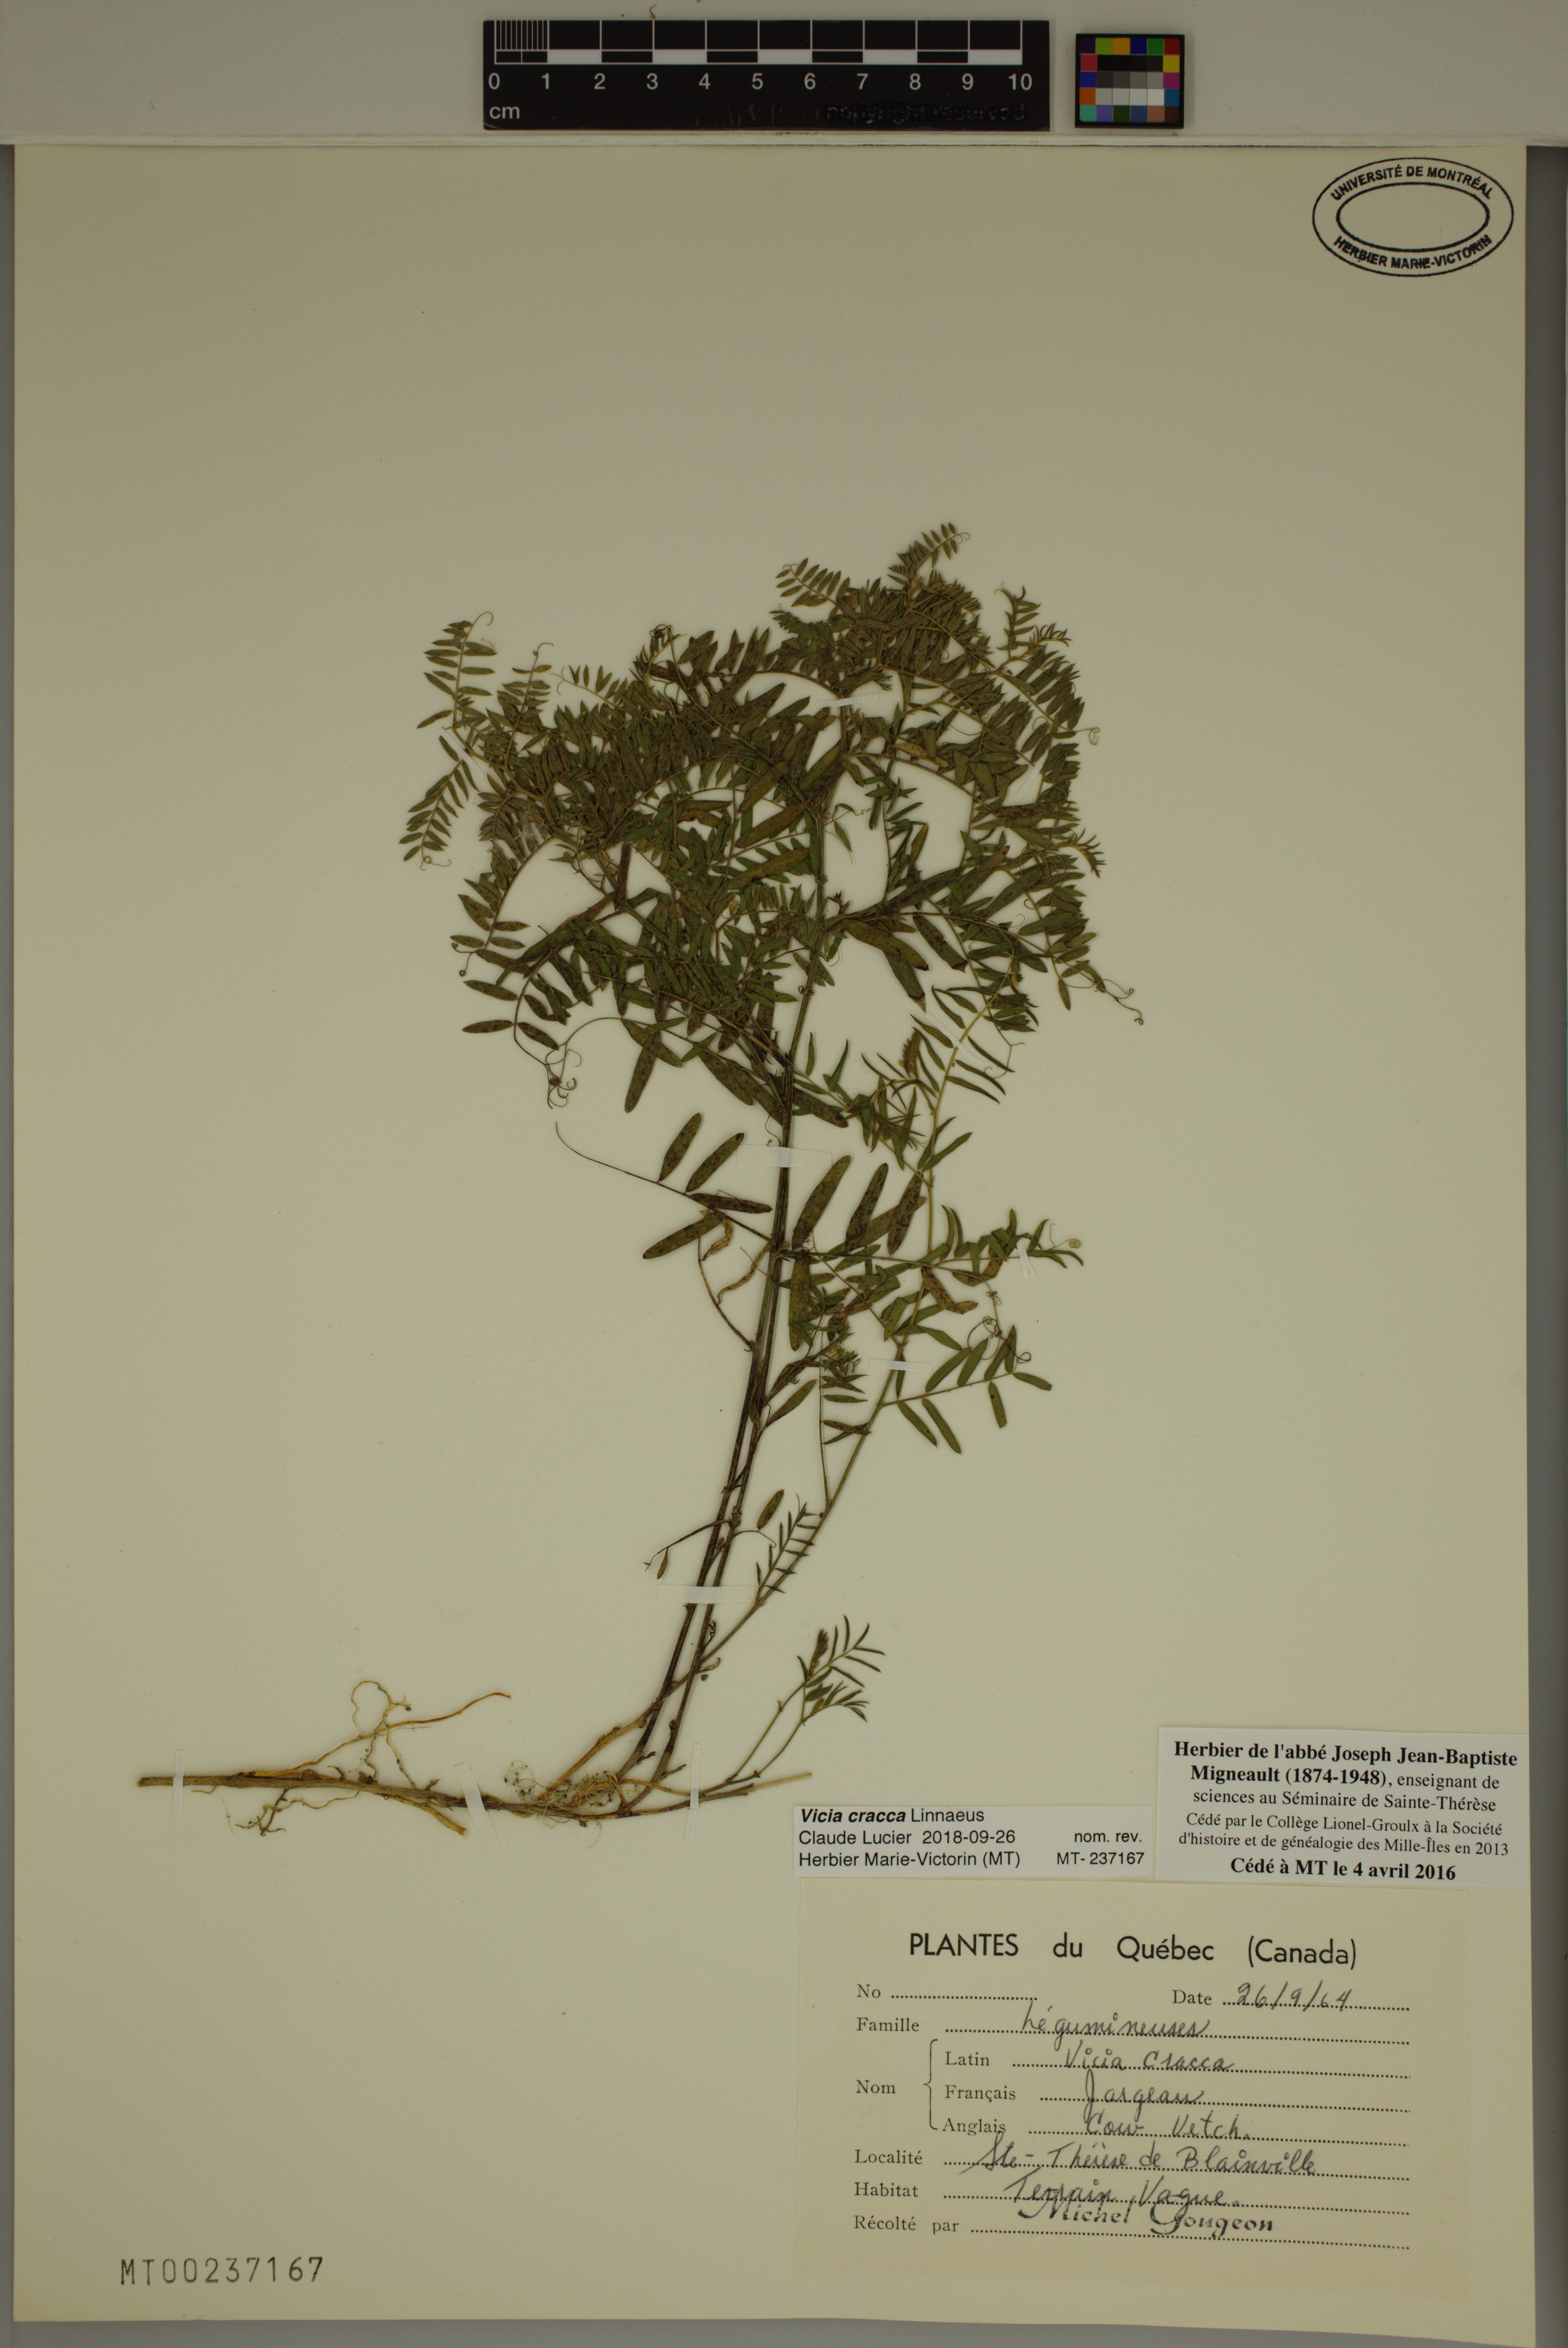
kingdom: Plantae
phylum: Tracheophyta
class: Magnoliopsida
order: Fabales
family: Fabaceae
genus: Vicia
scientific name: Vicia cracca
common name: Bird vetch
